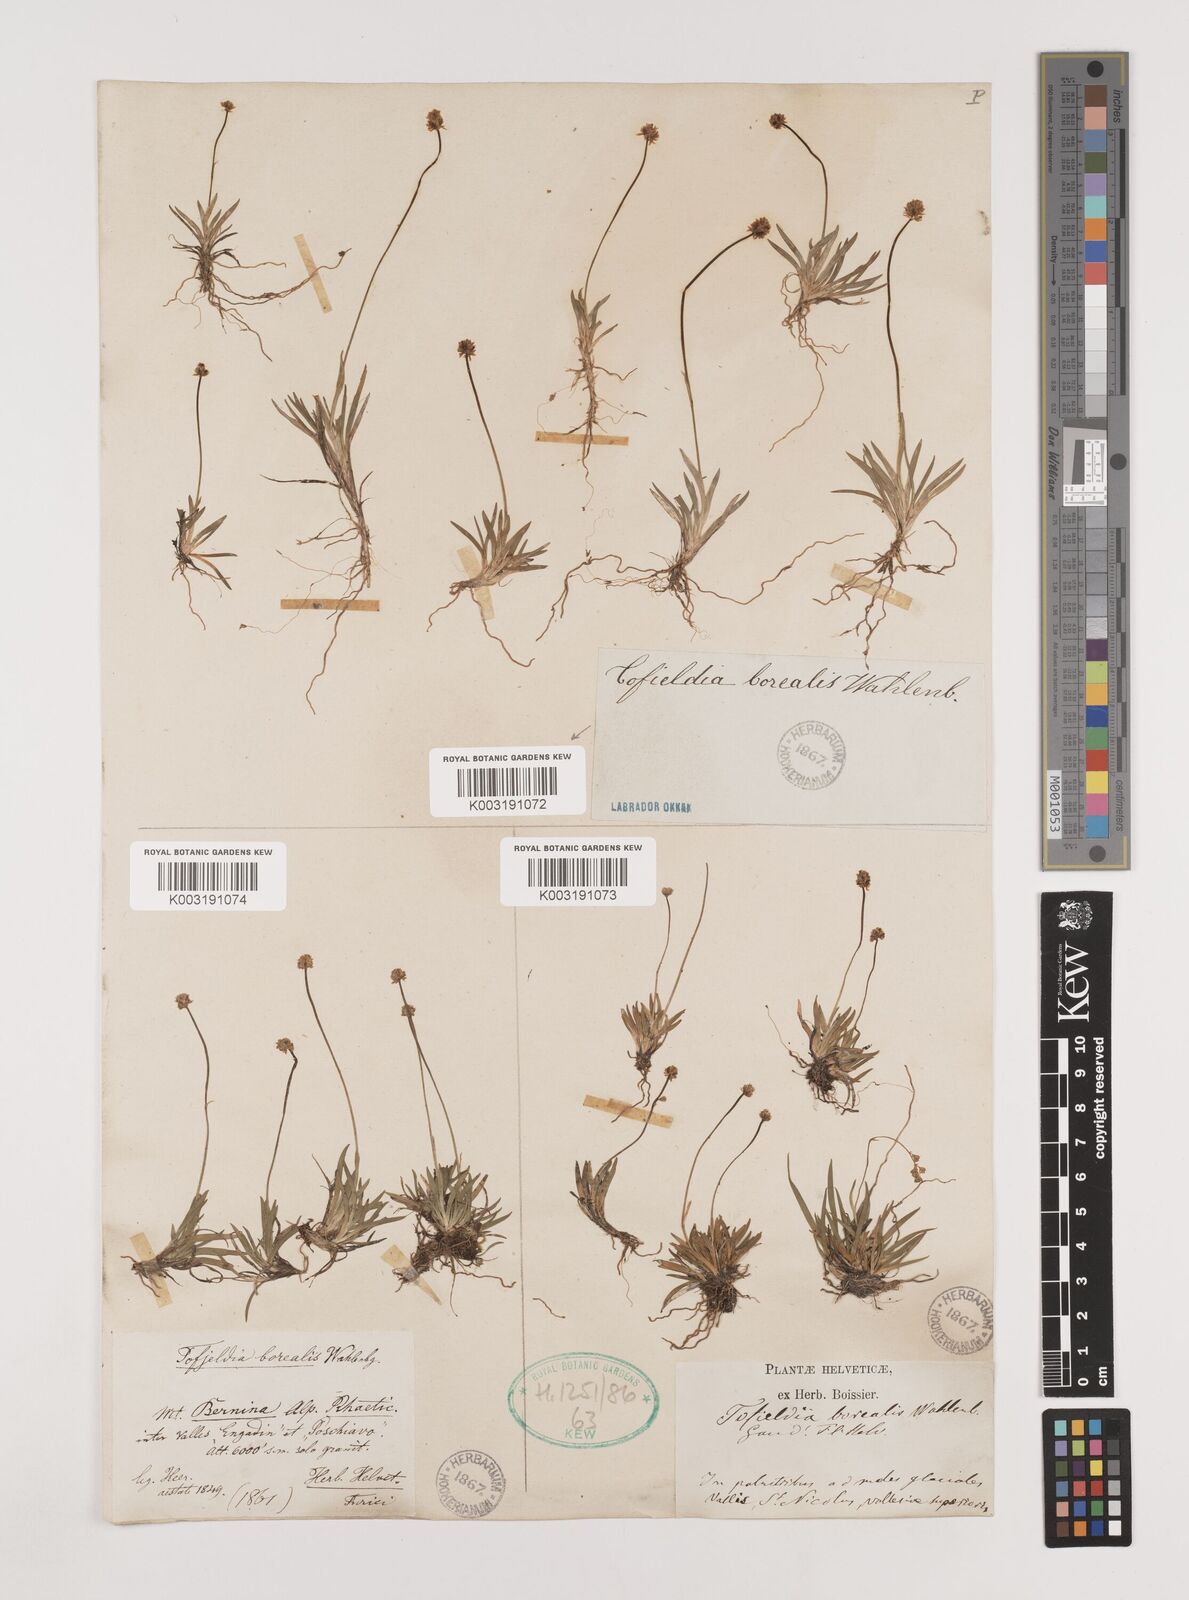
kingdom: Plantae
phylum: Tracheophyta
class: Liliopsida
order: Alismatales
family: Tofieldiaceae
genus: Tofieldia
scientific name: Tofieldia pusilla
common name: Scottish false asphodel
